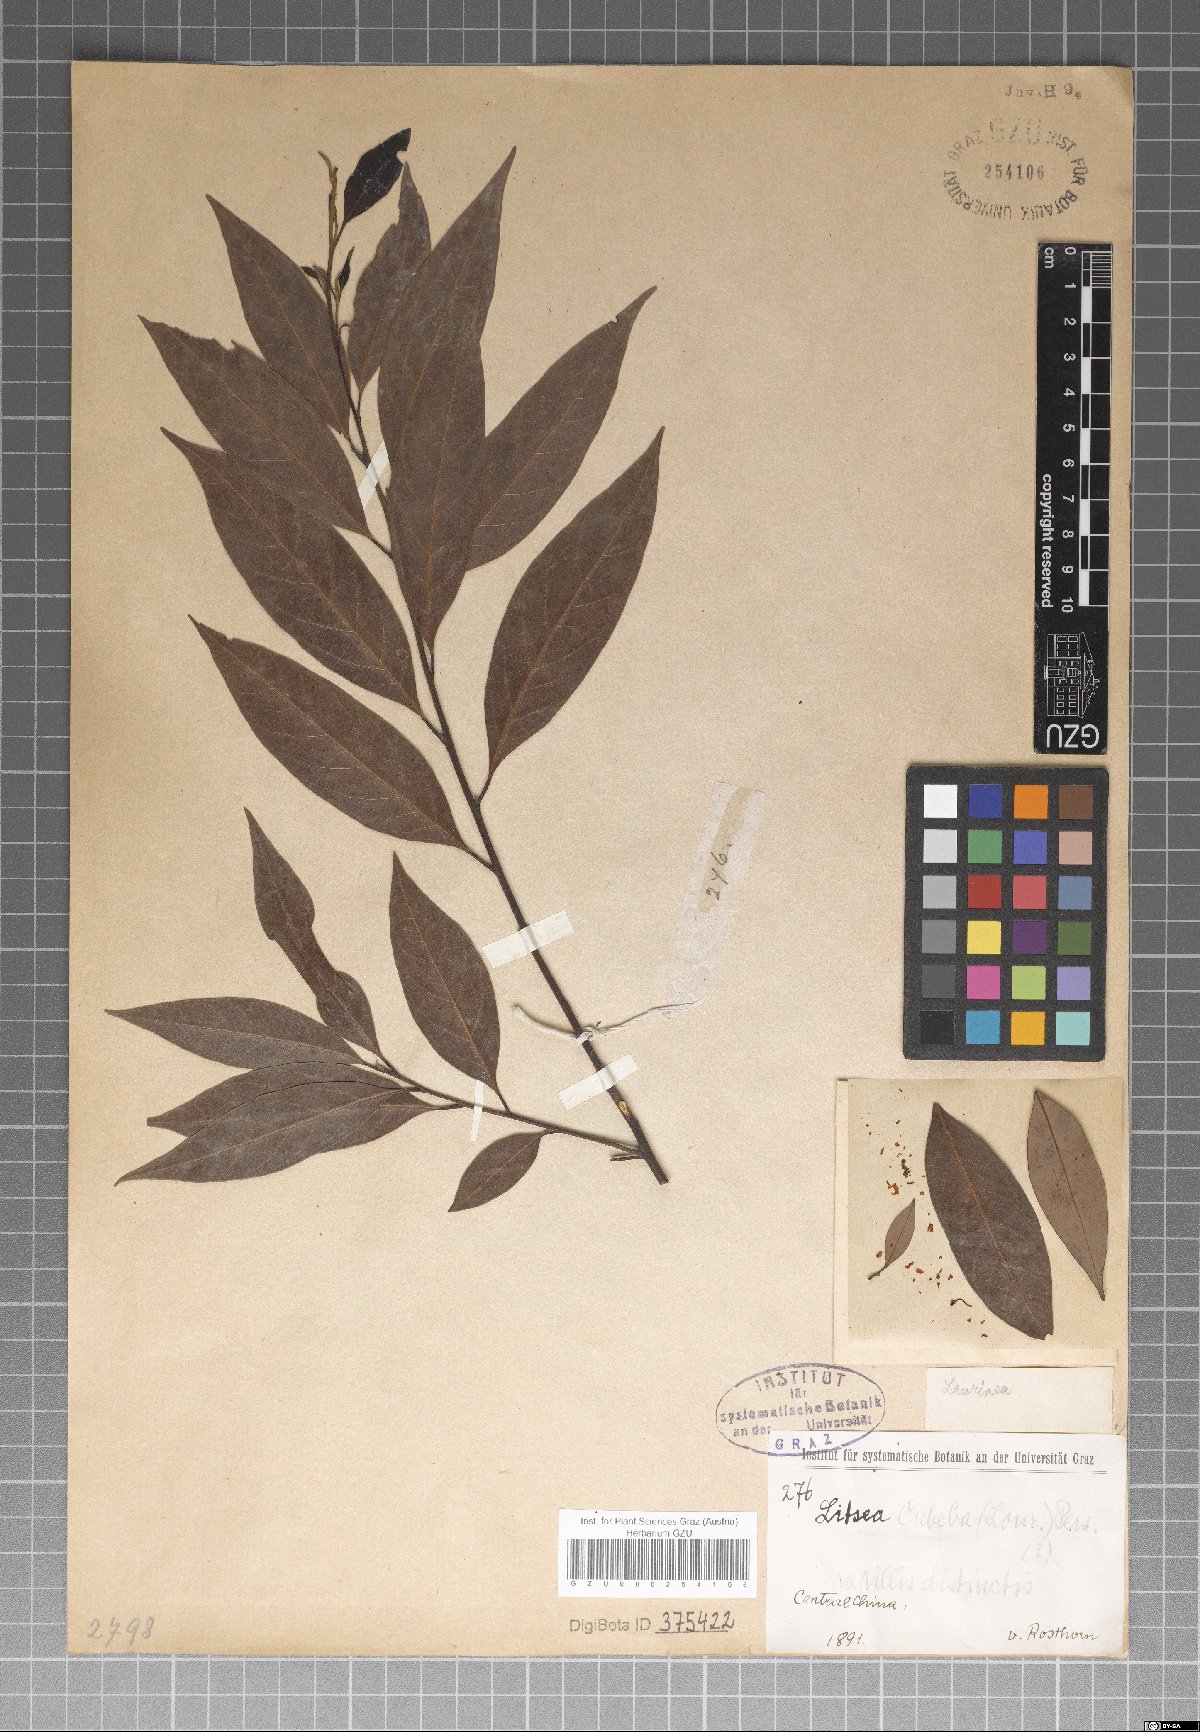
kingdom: Plantae
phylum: Tracheophyta
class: Magnoliopsida
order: Laurales
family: Lauraceae
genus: Litsea
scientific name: Litsea cubeba
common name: Mountain-pepper
